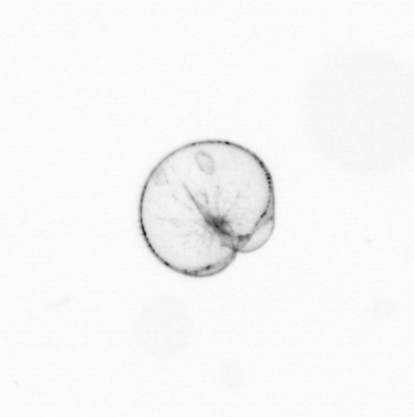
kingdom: Chromista
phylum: Myzozoa
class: Dinophyceae
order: Noctilucales
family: Noctilucaceae
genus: Noctiluca
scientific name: Noctiluca scintillans
